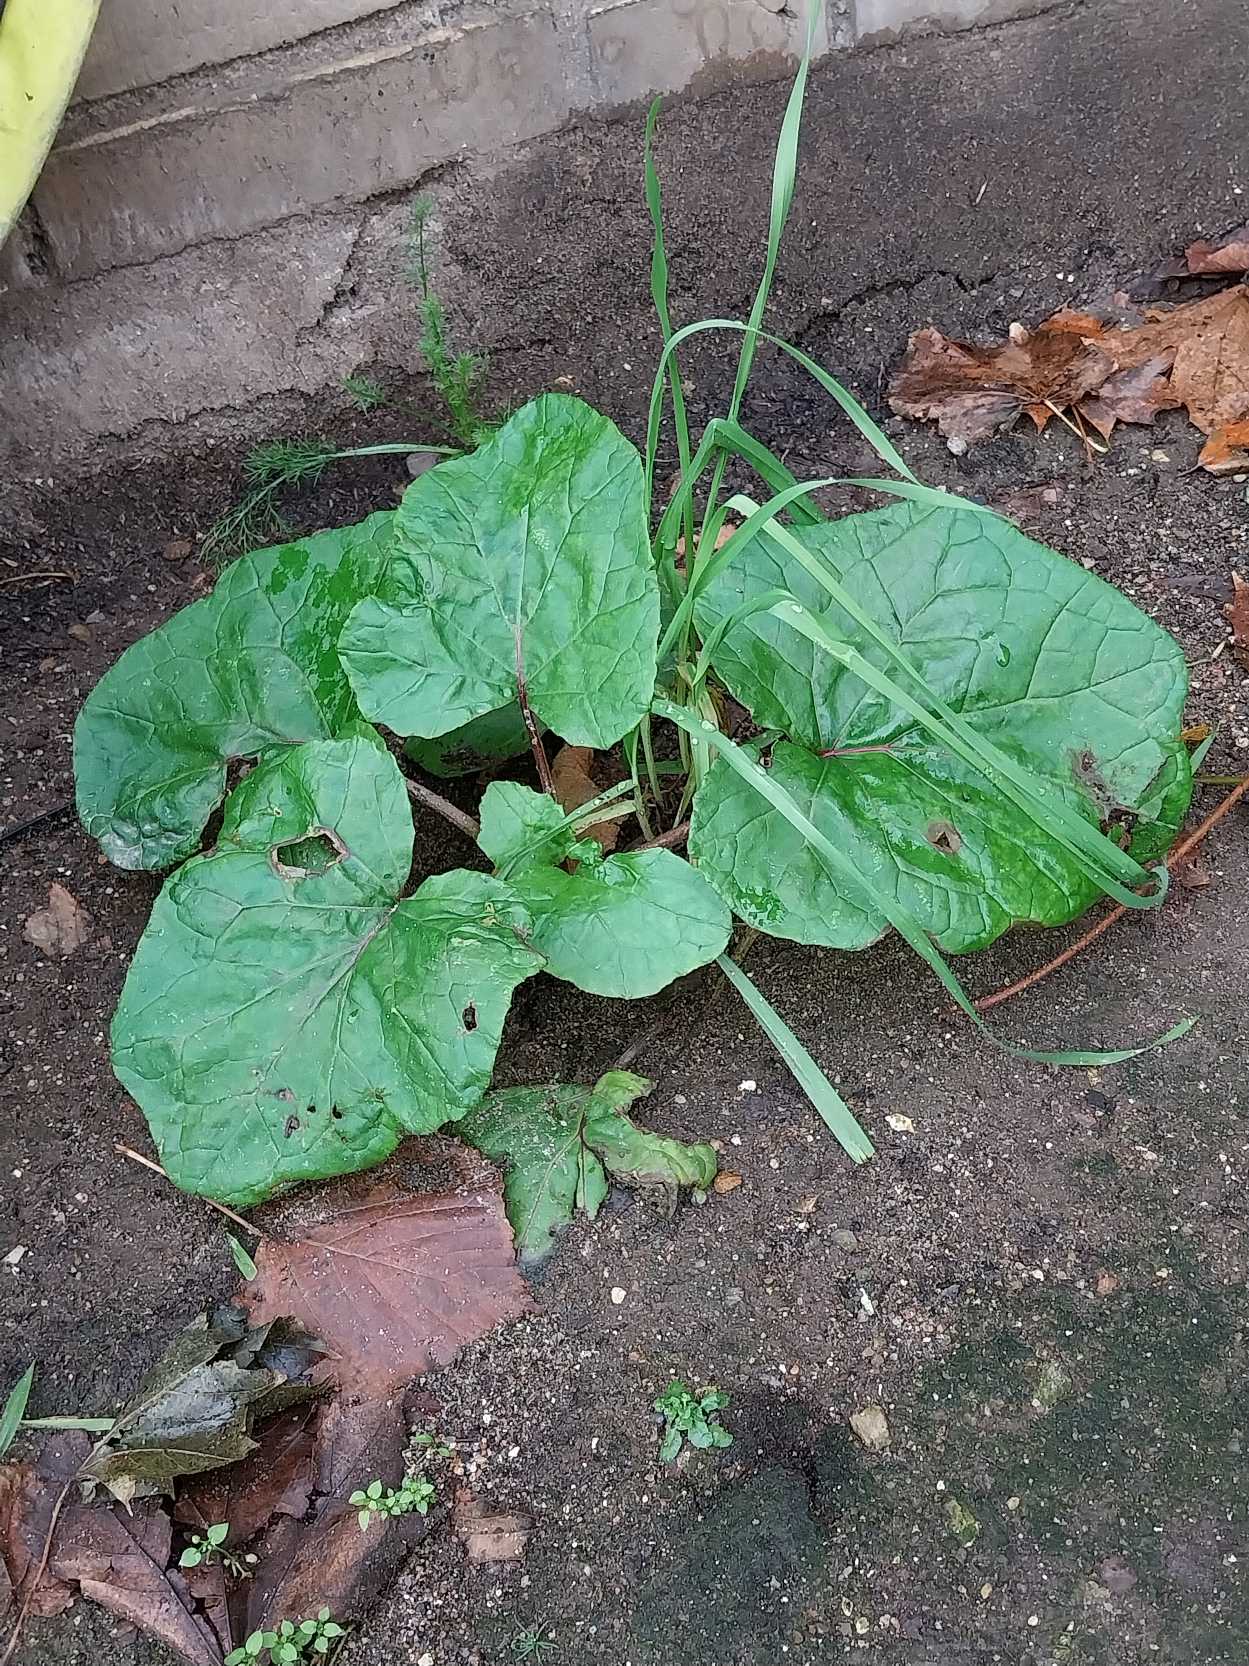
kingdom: Plantae
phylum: Tracheophyta
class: Magnoliopsida
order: Asterales
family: Asteraceae
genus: Tussilago
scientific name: Tussilago farfara
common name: Følfod
